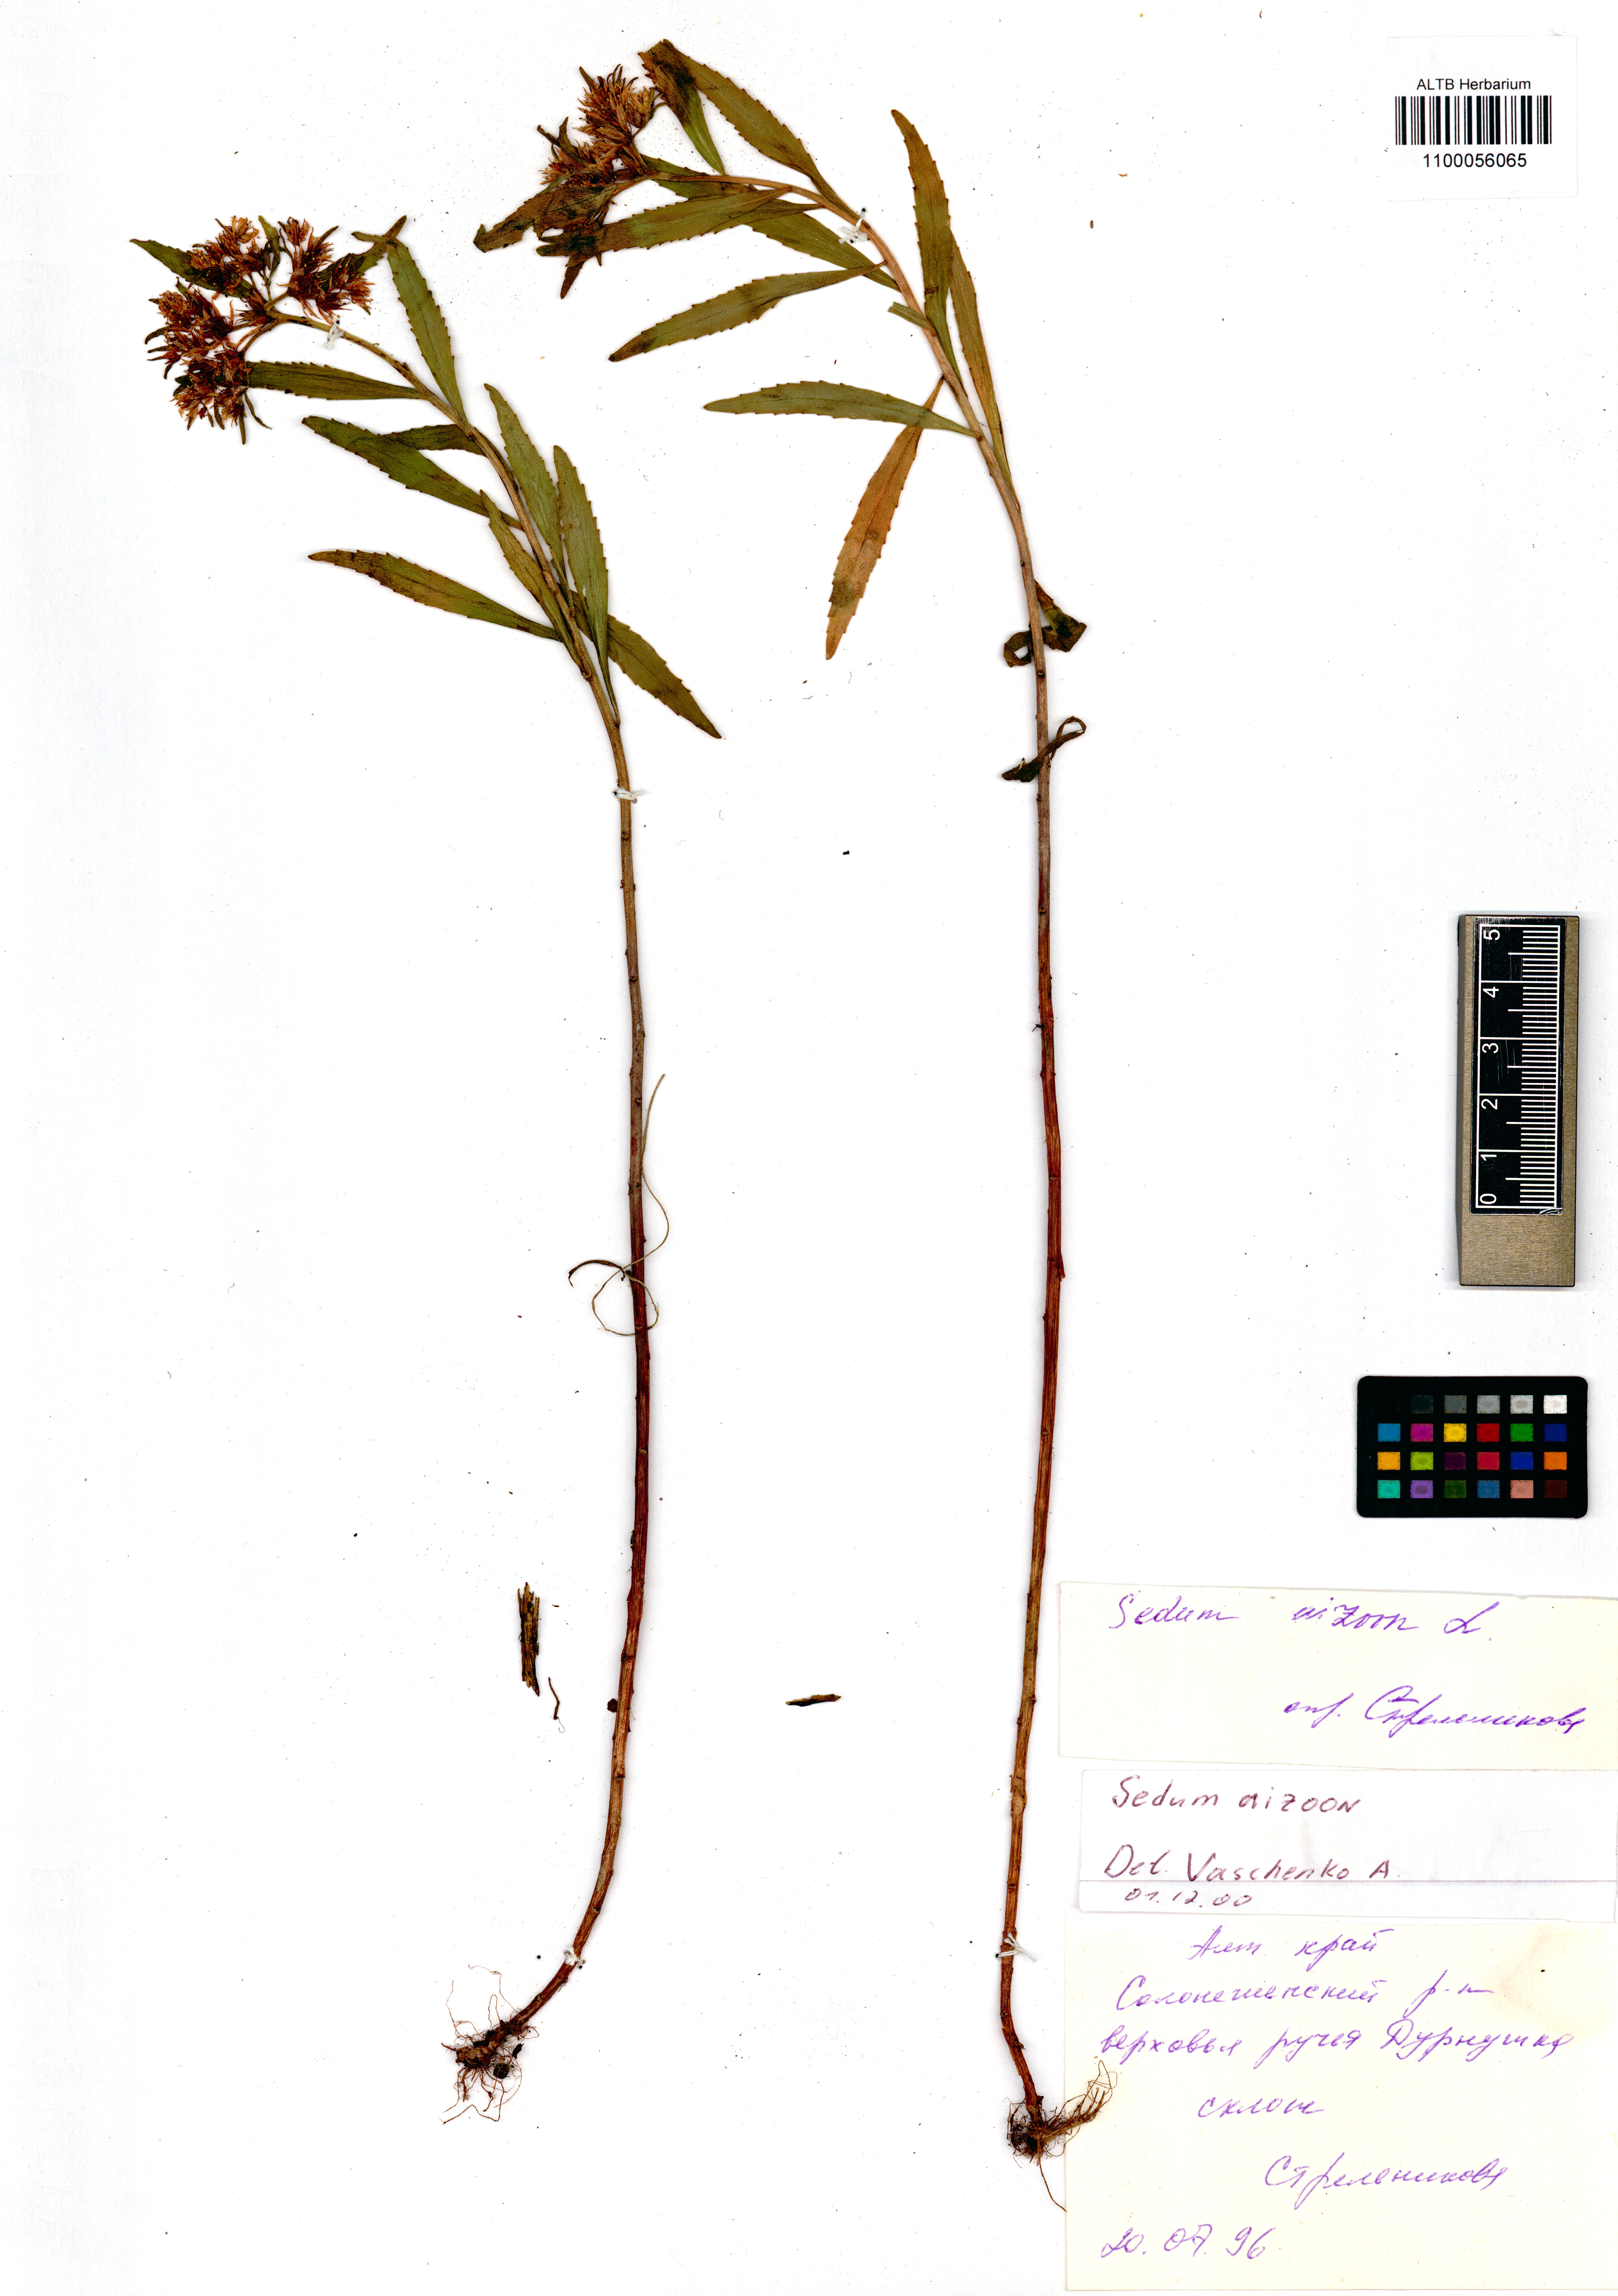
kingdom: Plantae
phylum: Tracheophyta
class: Magnoliopsida
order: Saxifragales
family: Crassulaceae
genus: Phedimus
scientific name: Phedimus aizoon
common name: Orpin aizoon
